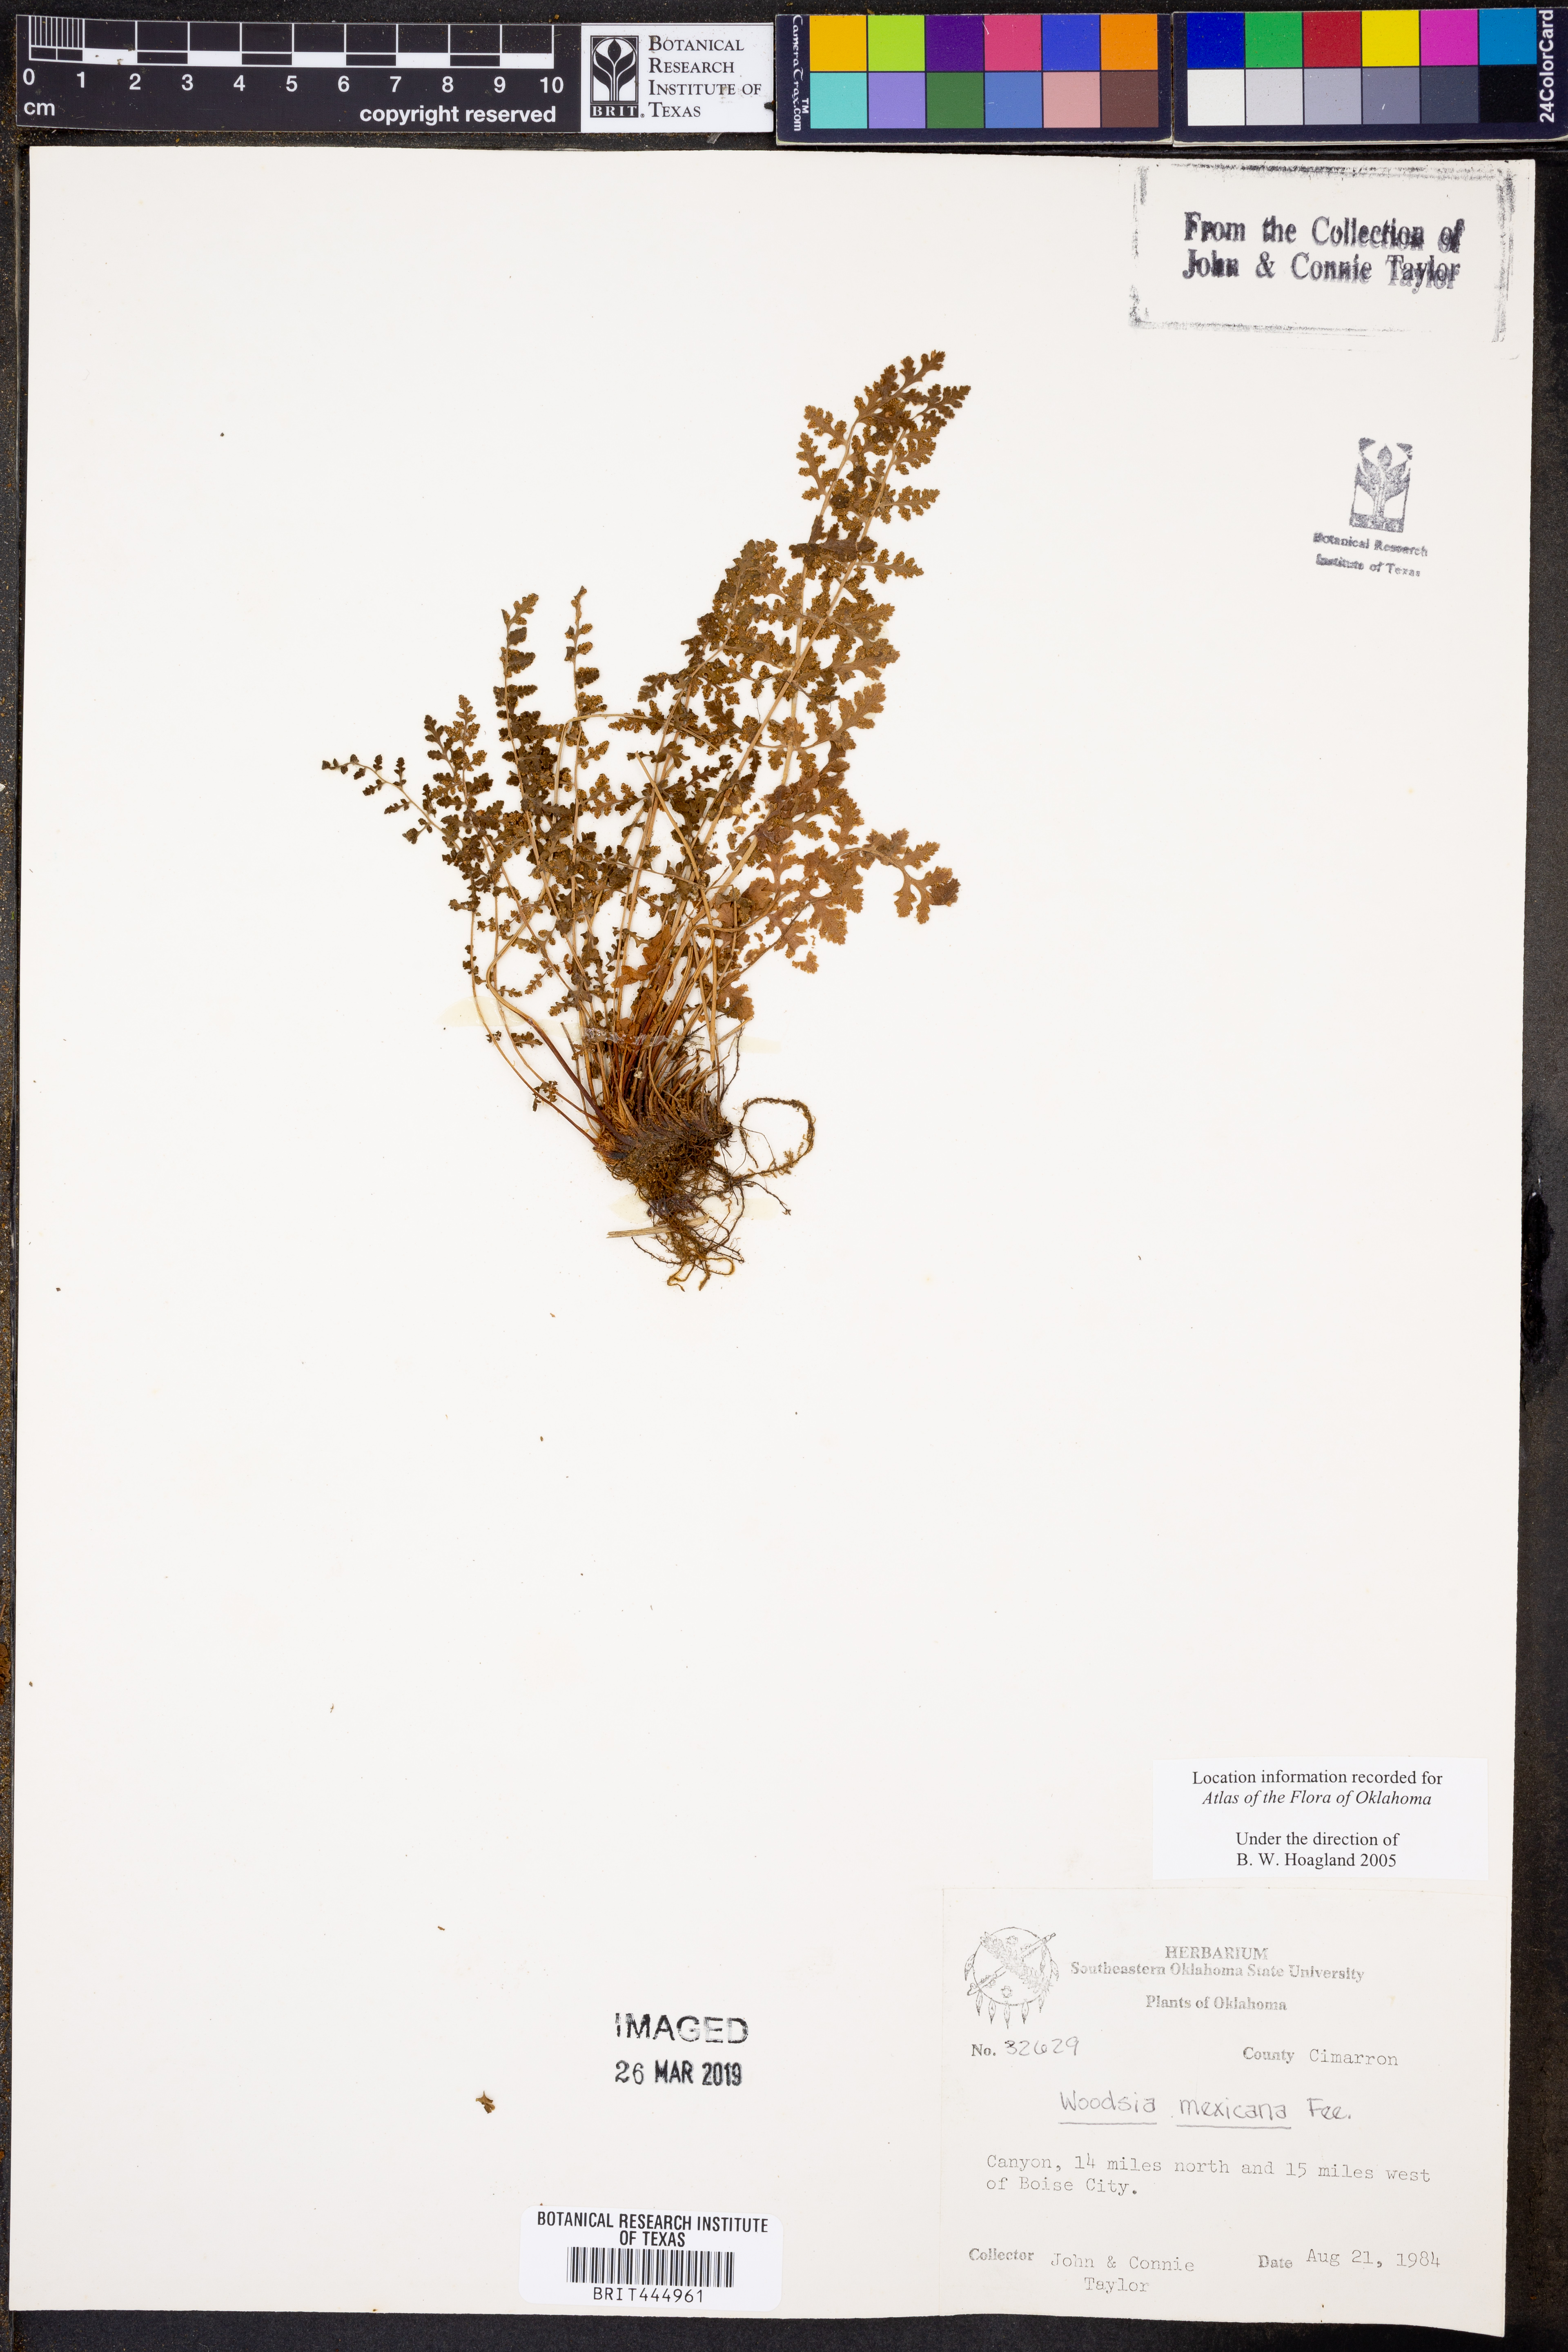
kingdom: Plantae
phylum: Tracheophyta
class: Polypodiopsida
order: Polypodiales
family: Woodsiaceae
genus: Physematium
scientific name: Physematium mexicanum
